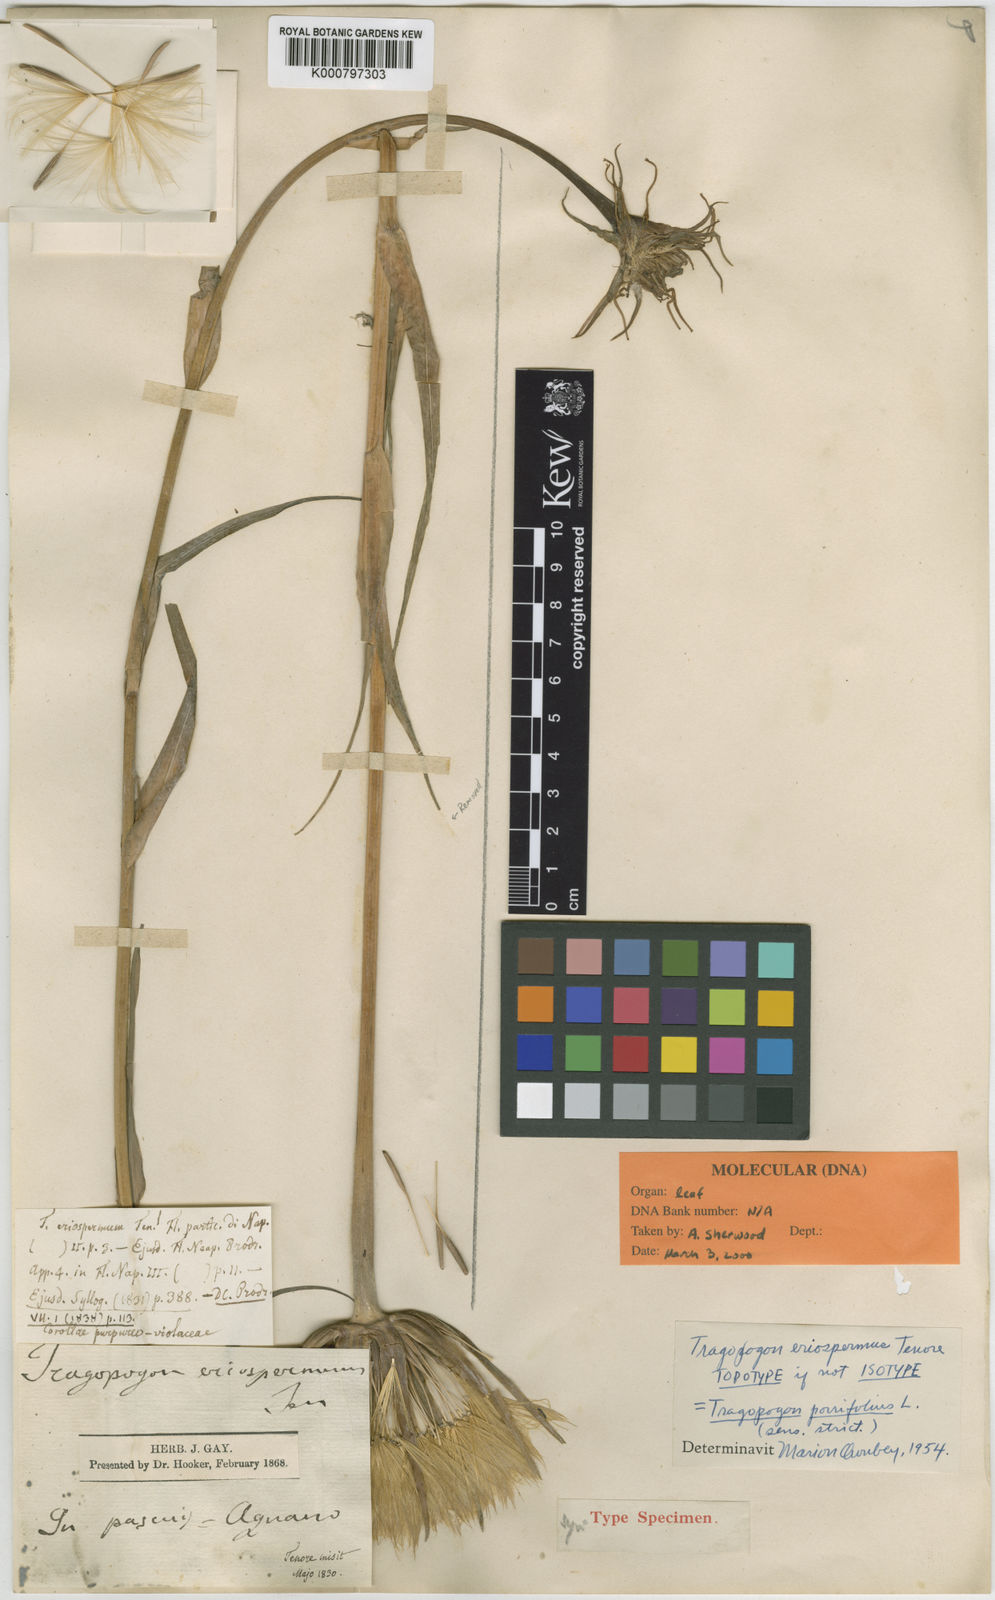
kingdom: Plantae
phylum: Tracheophyta
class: Magnoliopsida
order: Asterales
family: Asteraceae
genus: Tragopogon
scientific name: Tragopogon porrifolius
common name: Salsify
